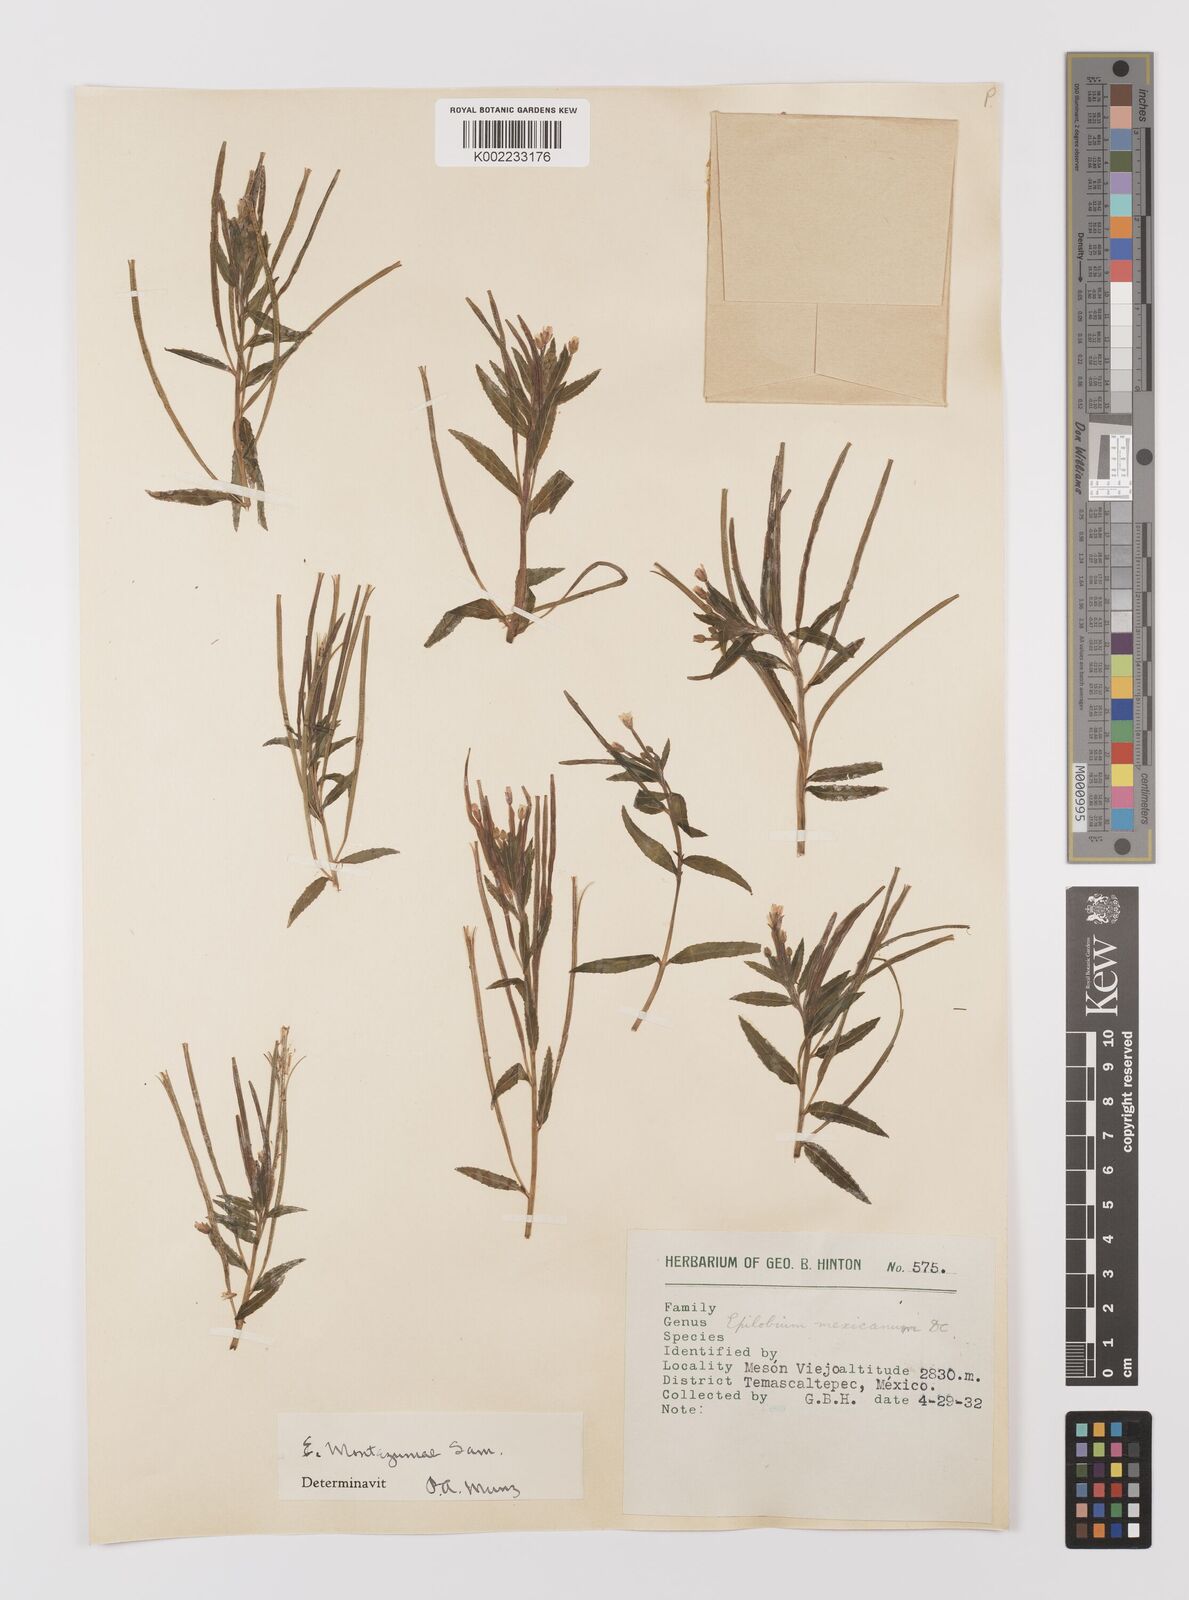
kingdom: Plantae
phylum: Tracheophyta
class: Magnoliopsida
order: Myrtales
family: Onagraceae
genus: Epilobium
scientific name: Epilobium
